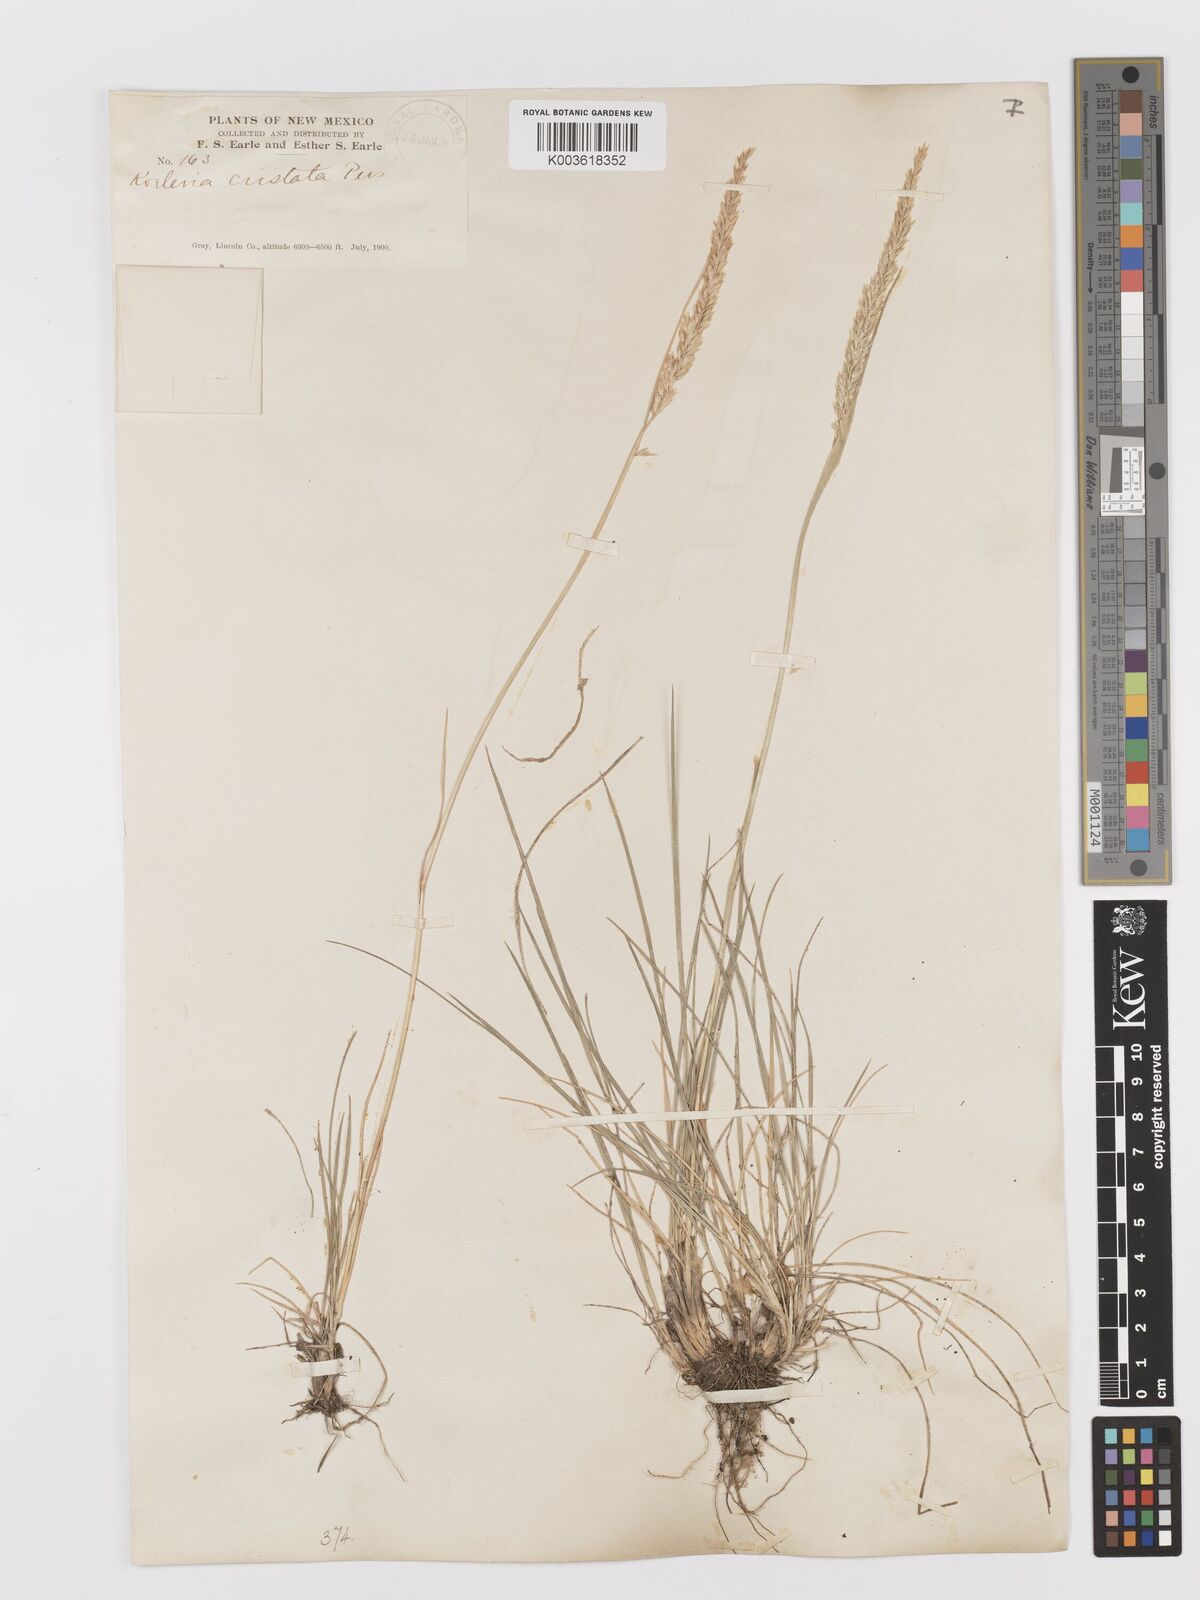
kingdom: Plantae
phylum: Tracheophyta
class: Liliopsida
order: Poales
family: Poaceae
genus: Koeleria
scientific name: Koeleria
